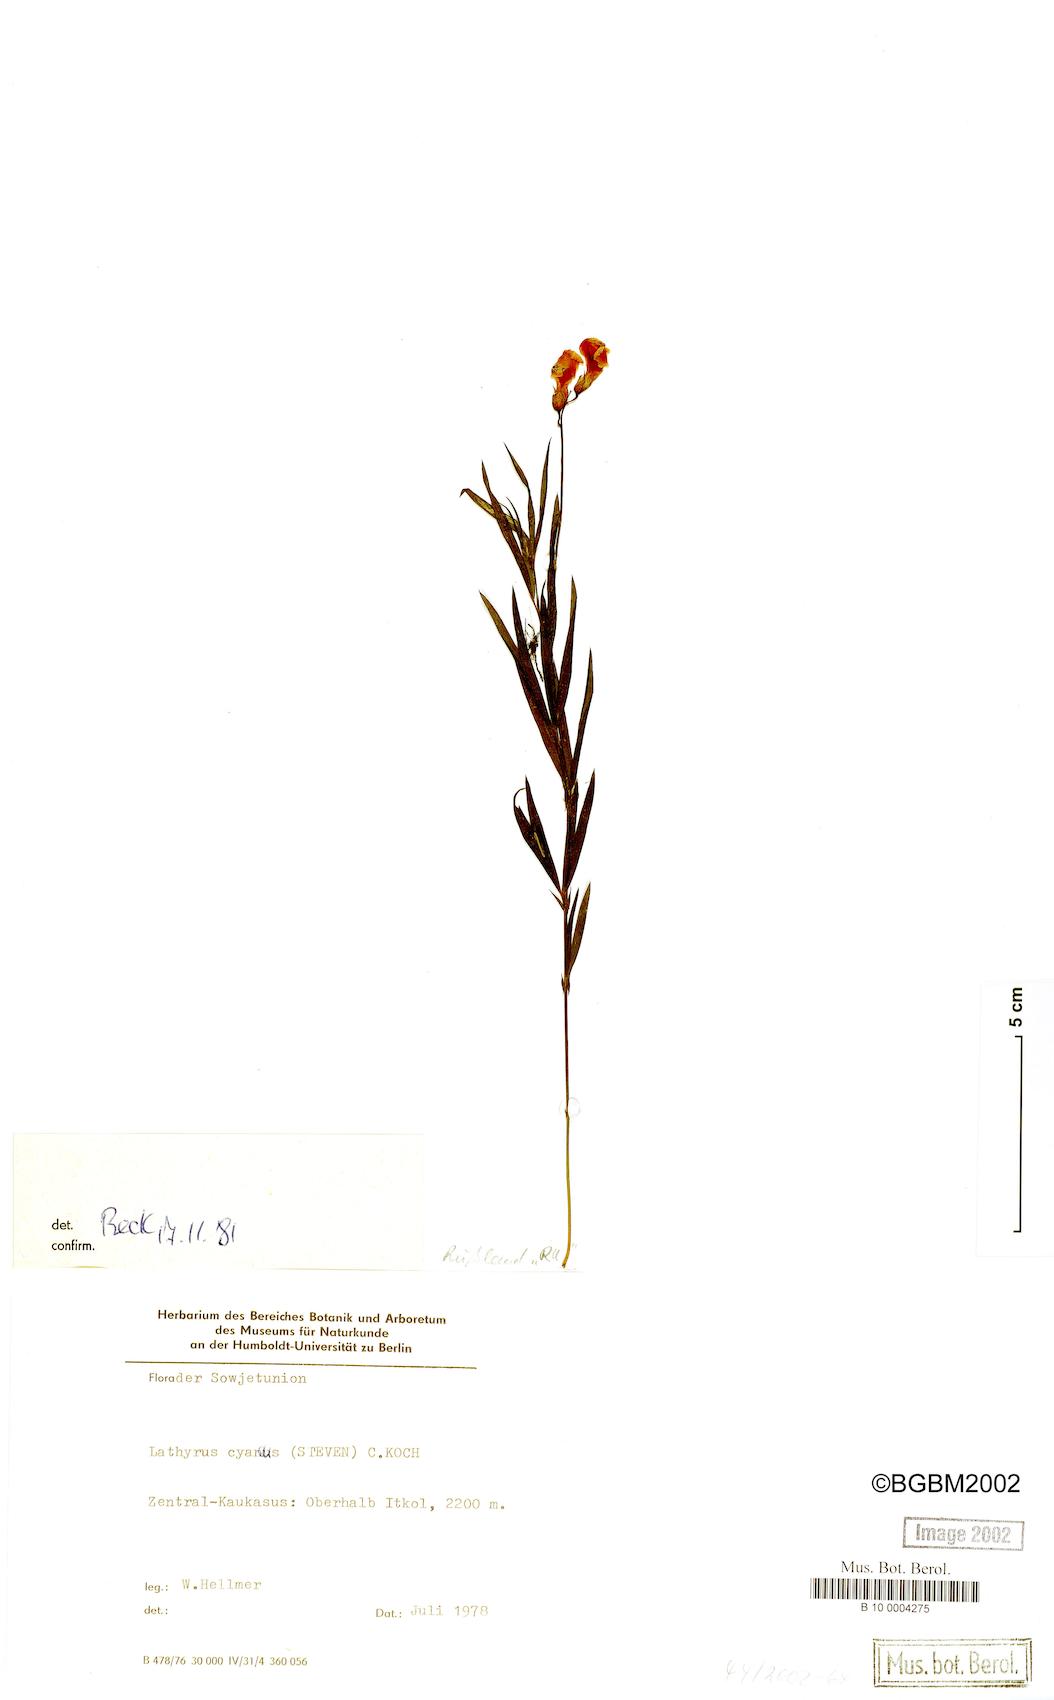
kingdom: Plantae
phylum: Tracheophyta
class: Magnoliopsida
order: Fabales
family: Fabaceae
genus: Lathyrus
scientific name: Lathyrus cyaneus
